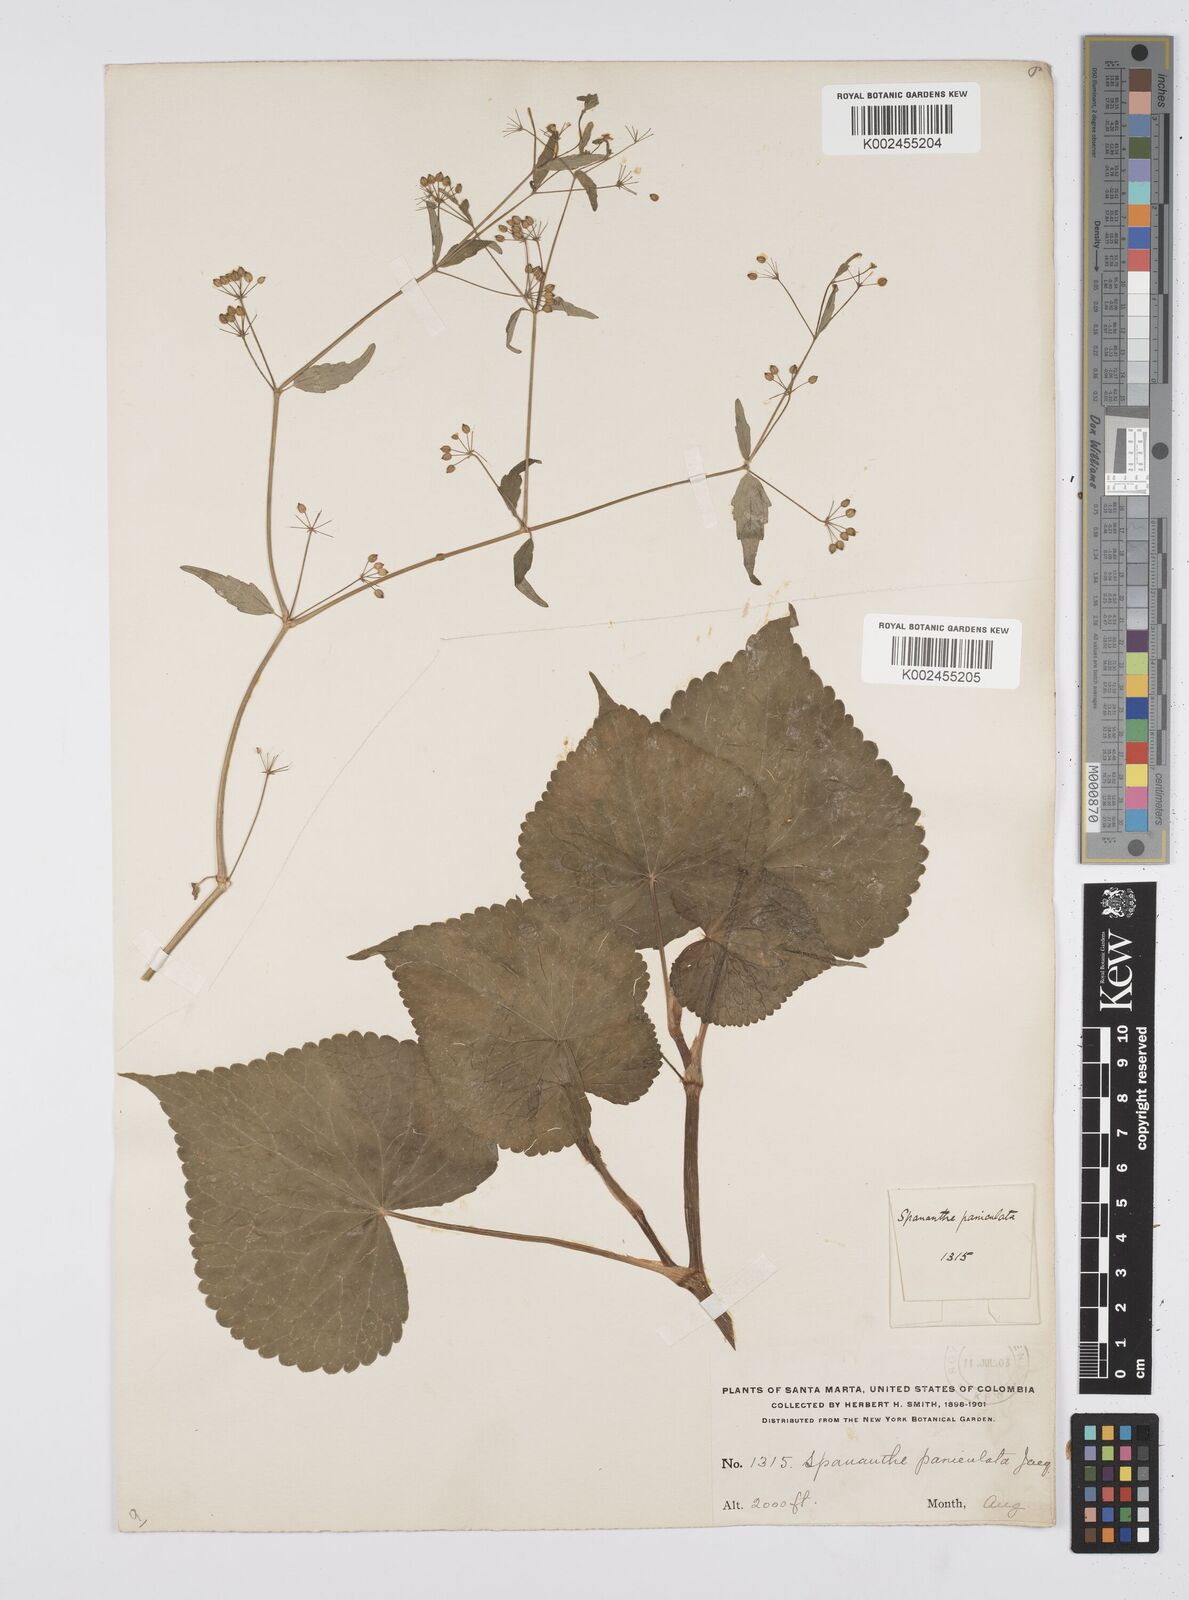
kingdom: Plantae
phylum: Tracheophyta
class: Magnoliopsida
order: Apiales
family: Apiaceae
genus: Azorella
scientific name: Azorella
